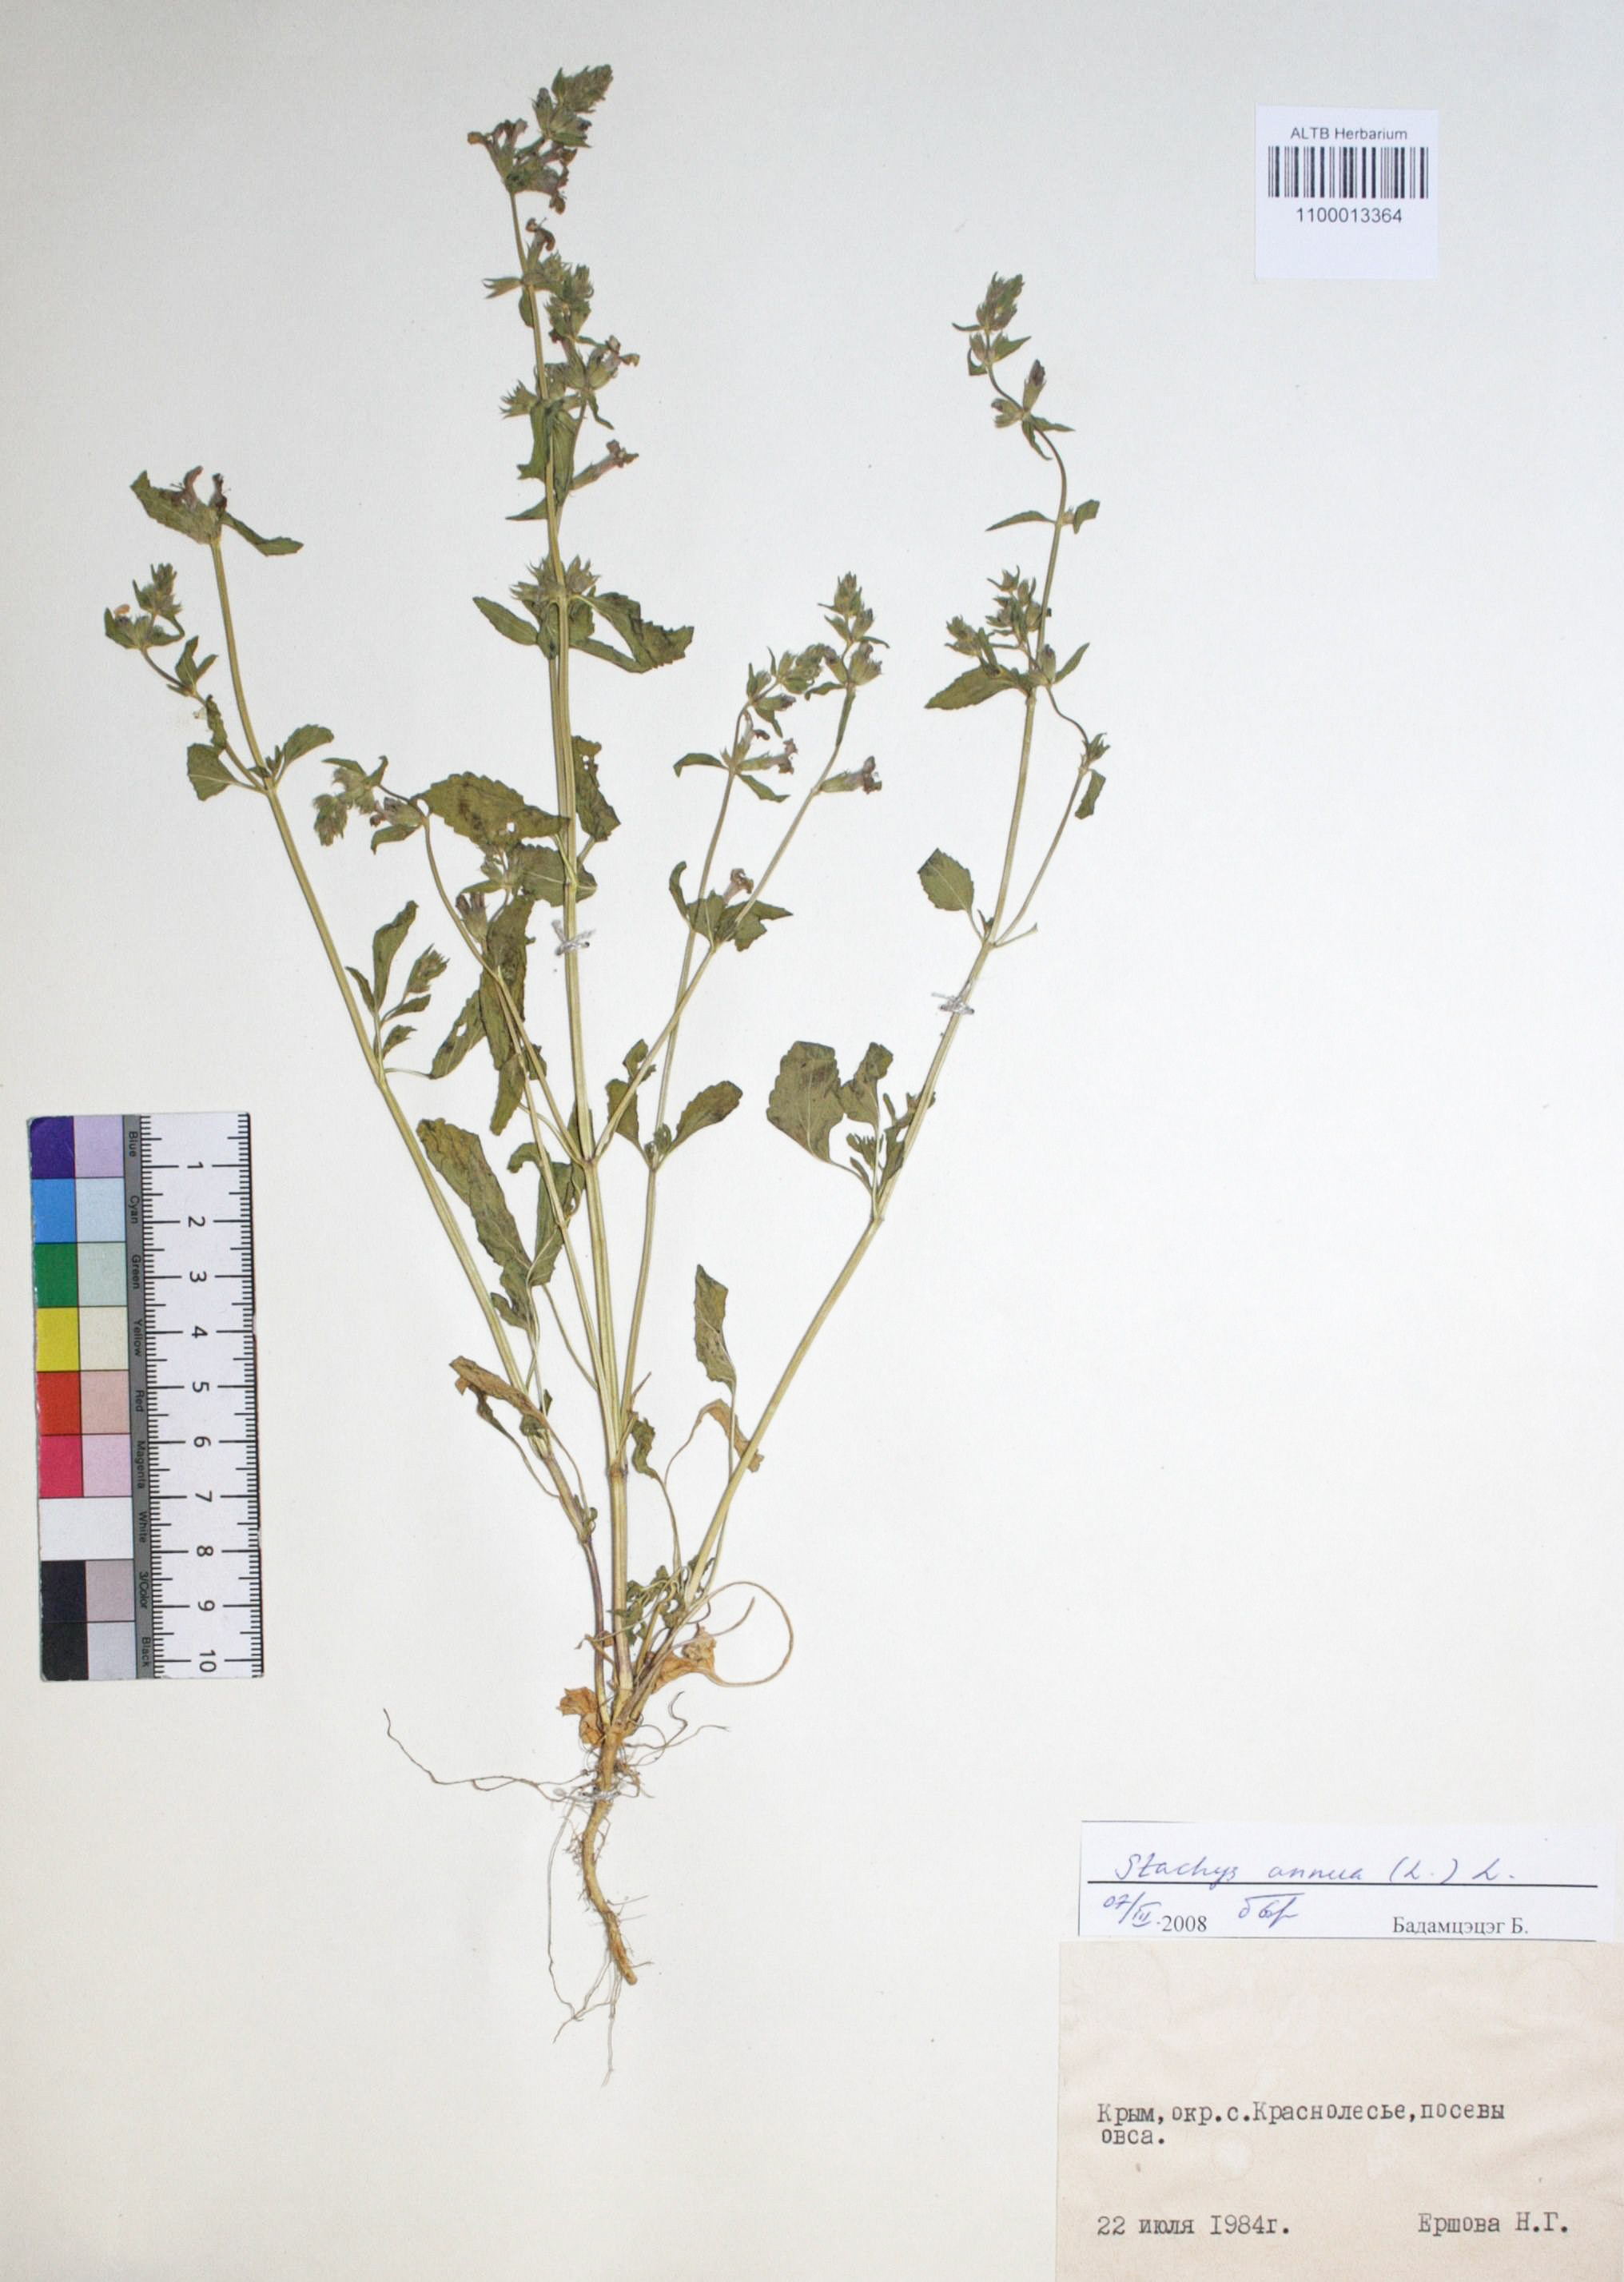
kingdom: Plantae
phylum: Tracheophyta
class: Magnoliopsida
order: Lamiales
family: Lamiaceae
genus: Stachys
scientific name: Stachys annua
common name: Annual yellow-woundwort
